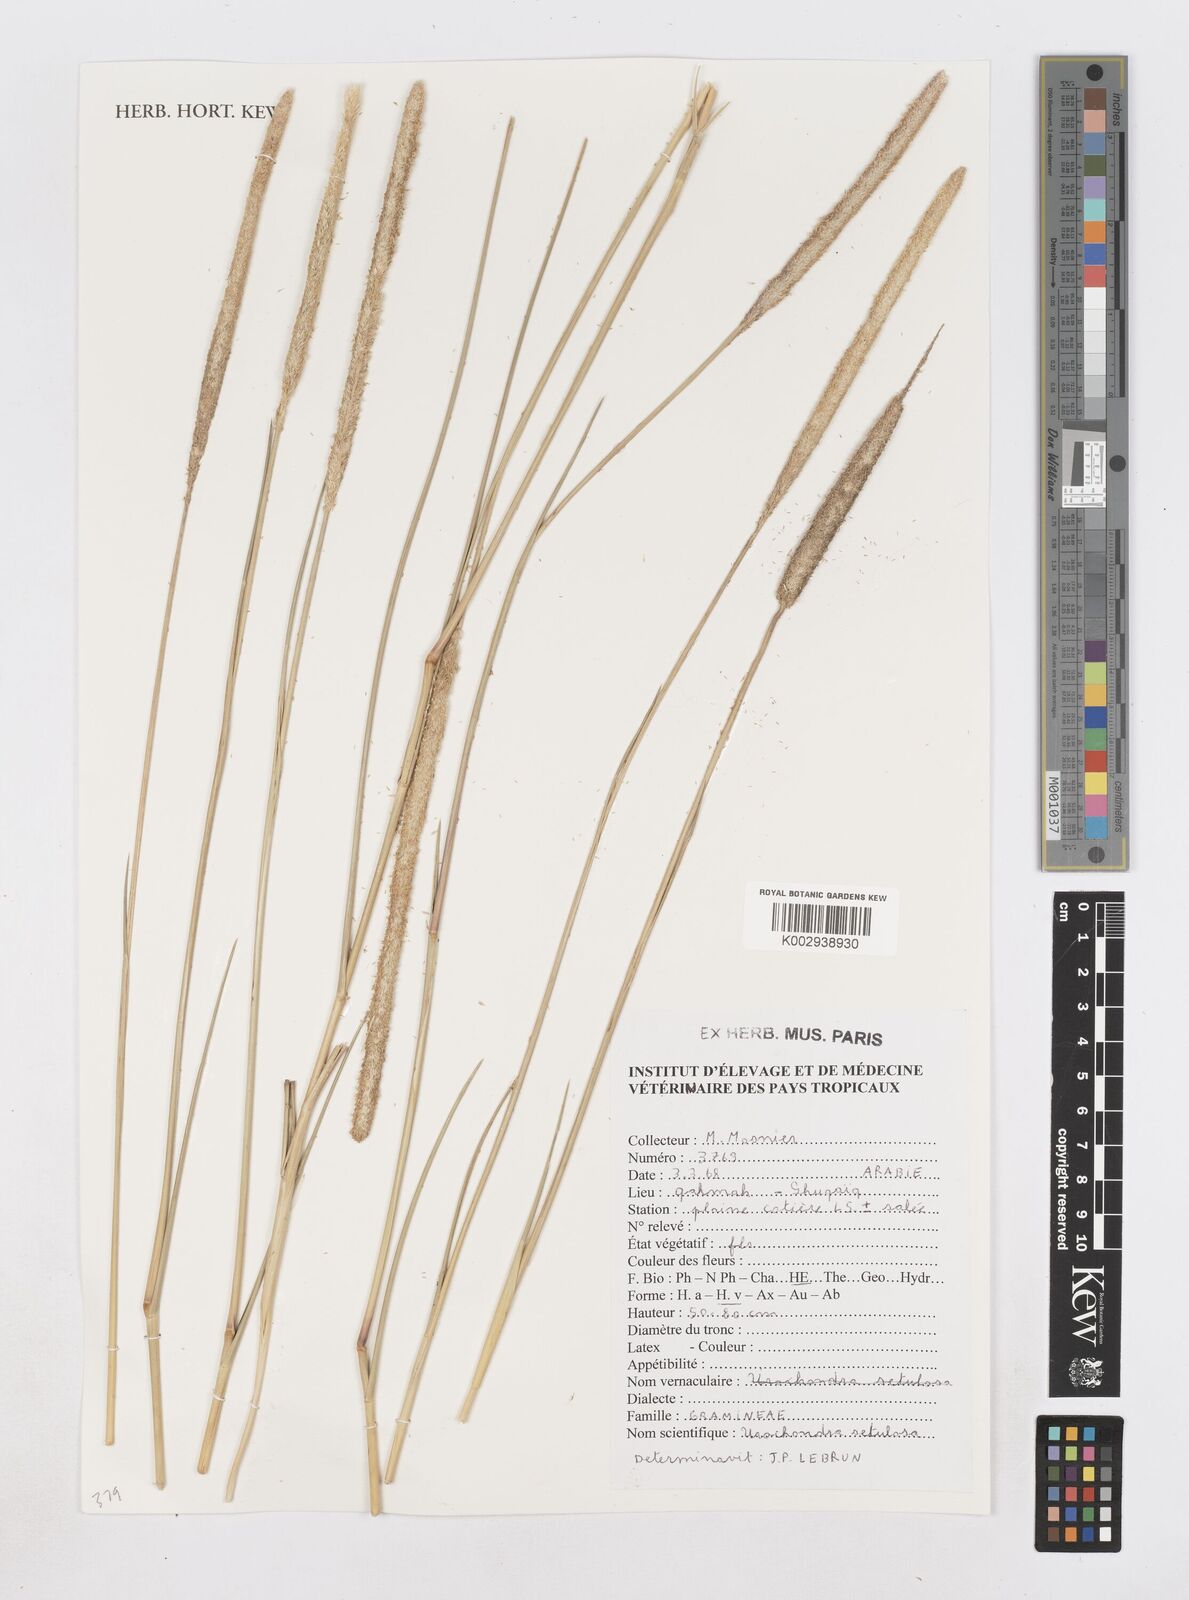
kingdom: Plantae
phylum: Tracheophyta
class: Liliopsida
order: Poales
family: Poaceae
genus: Urochondra
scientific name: Urochondra setulosa
